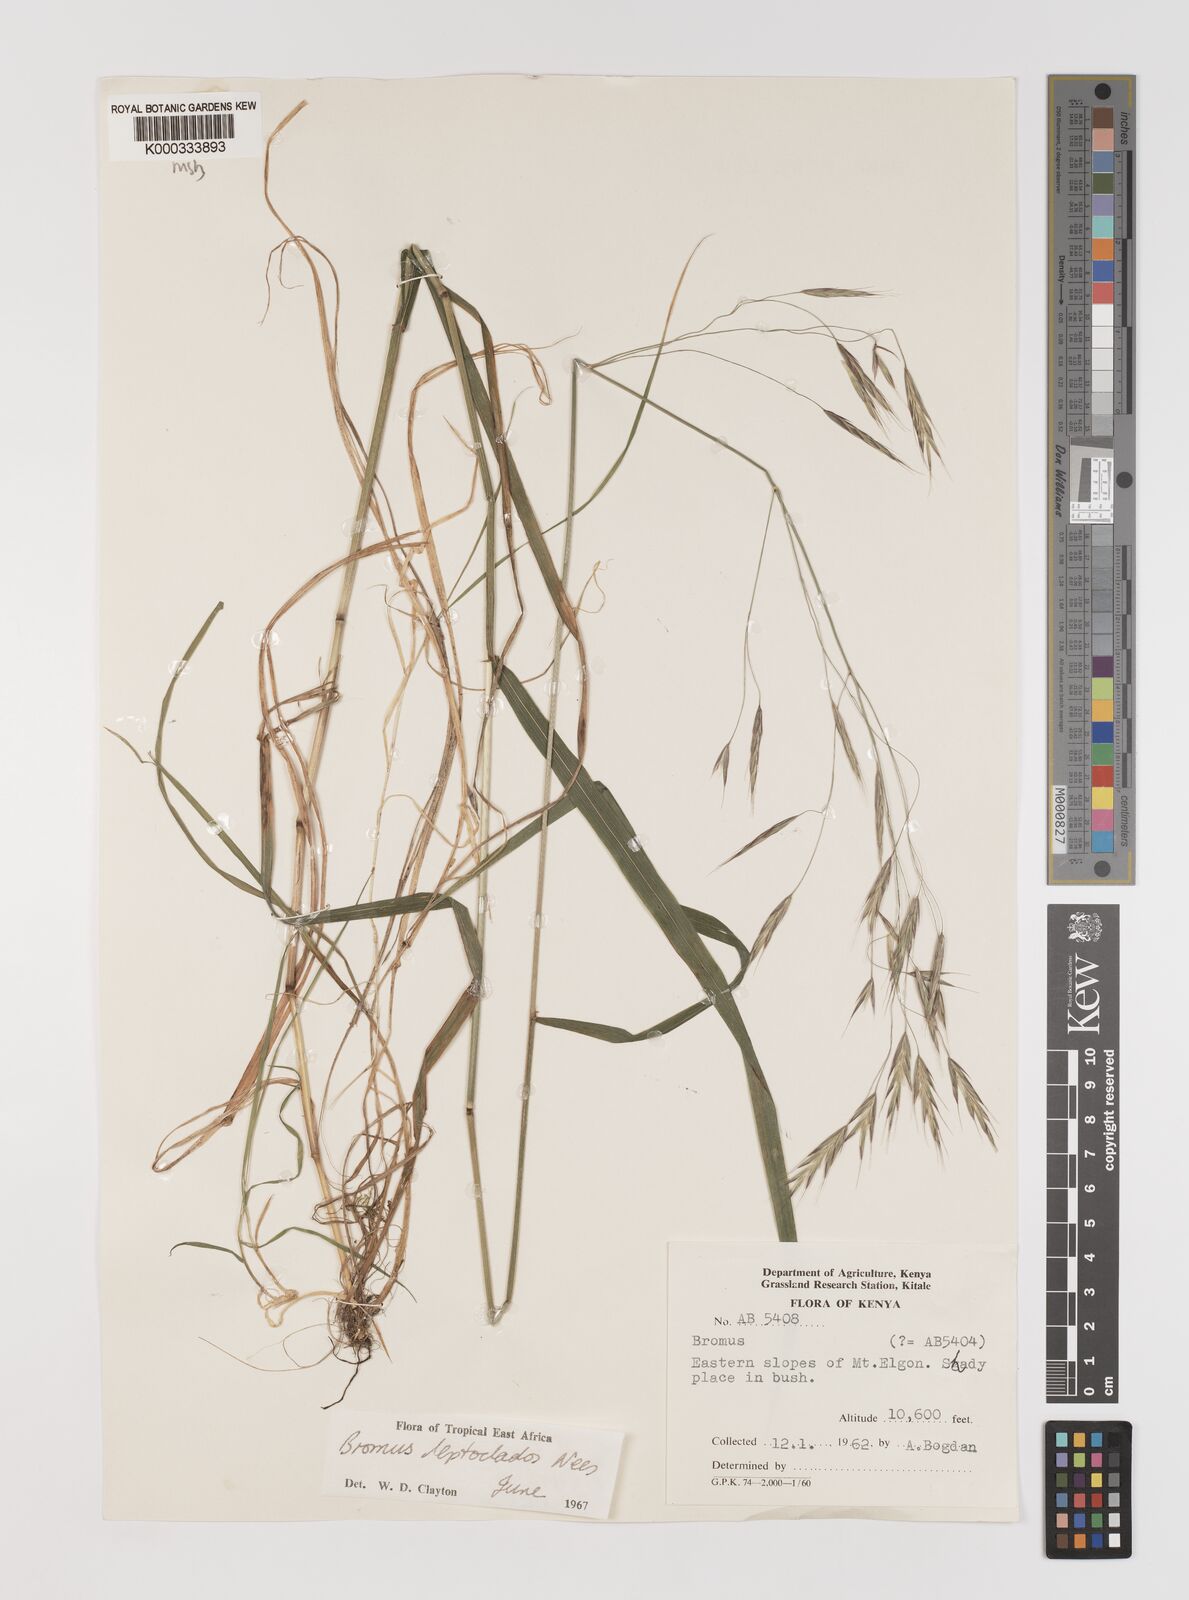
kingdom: Plantae
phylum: Tracheophyta
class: Liliopsida
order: Poales
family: Poaceae
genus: Bromus
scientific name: Bromus leptoclados
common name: Mountain bromegrass
